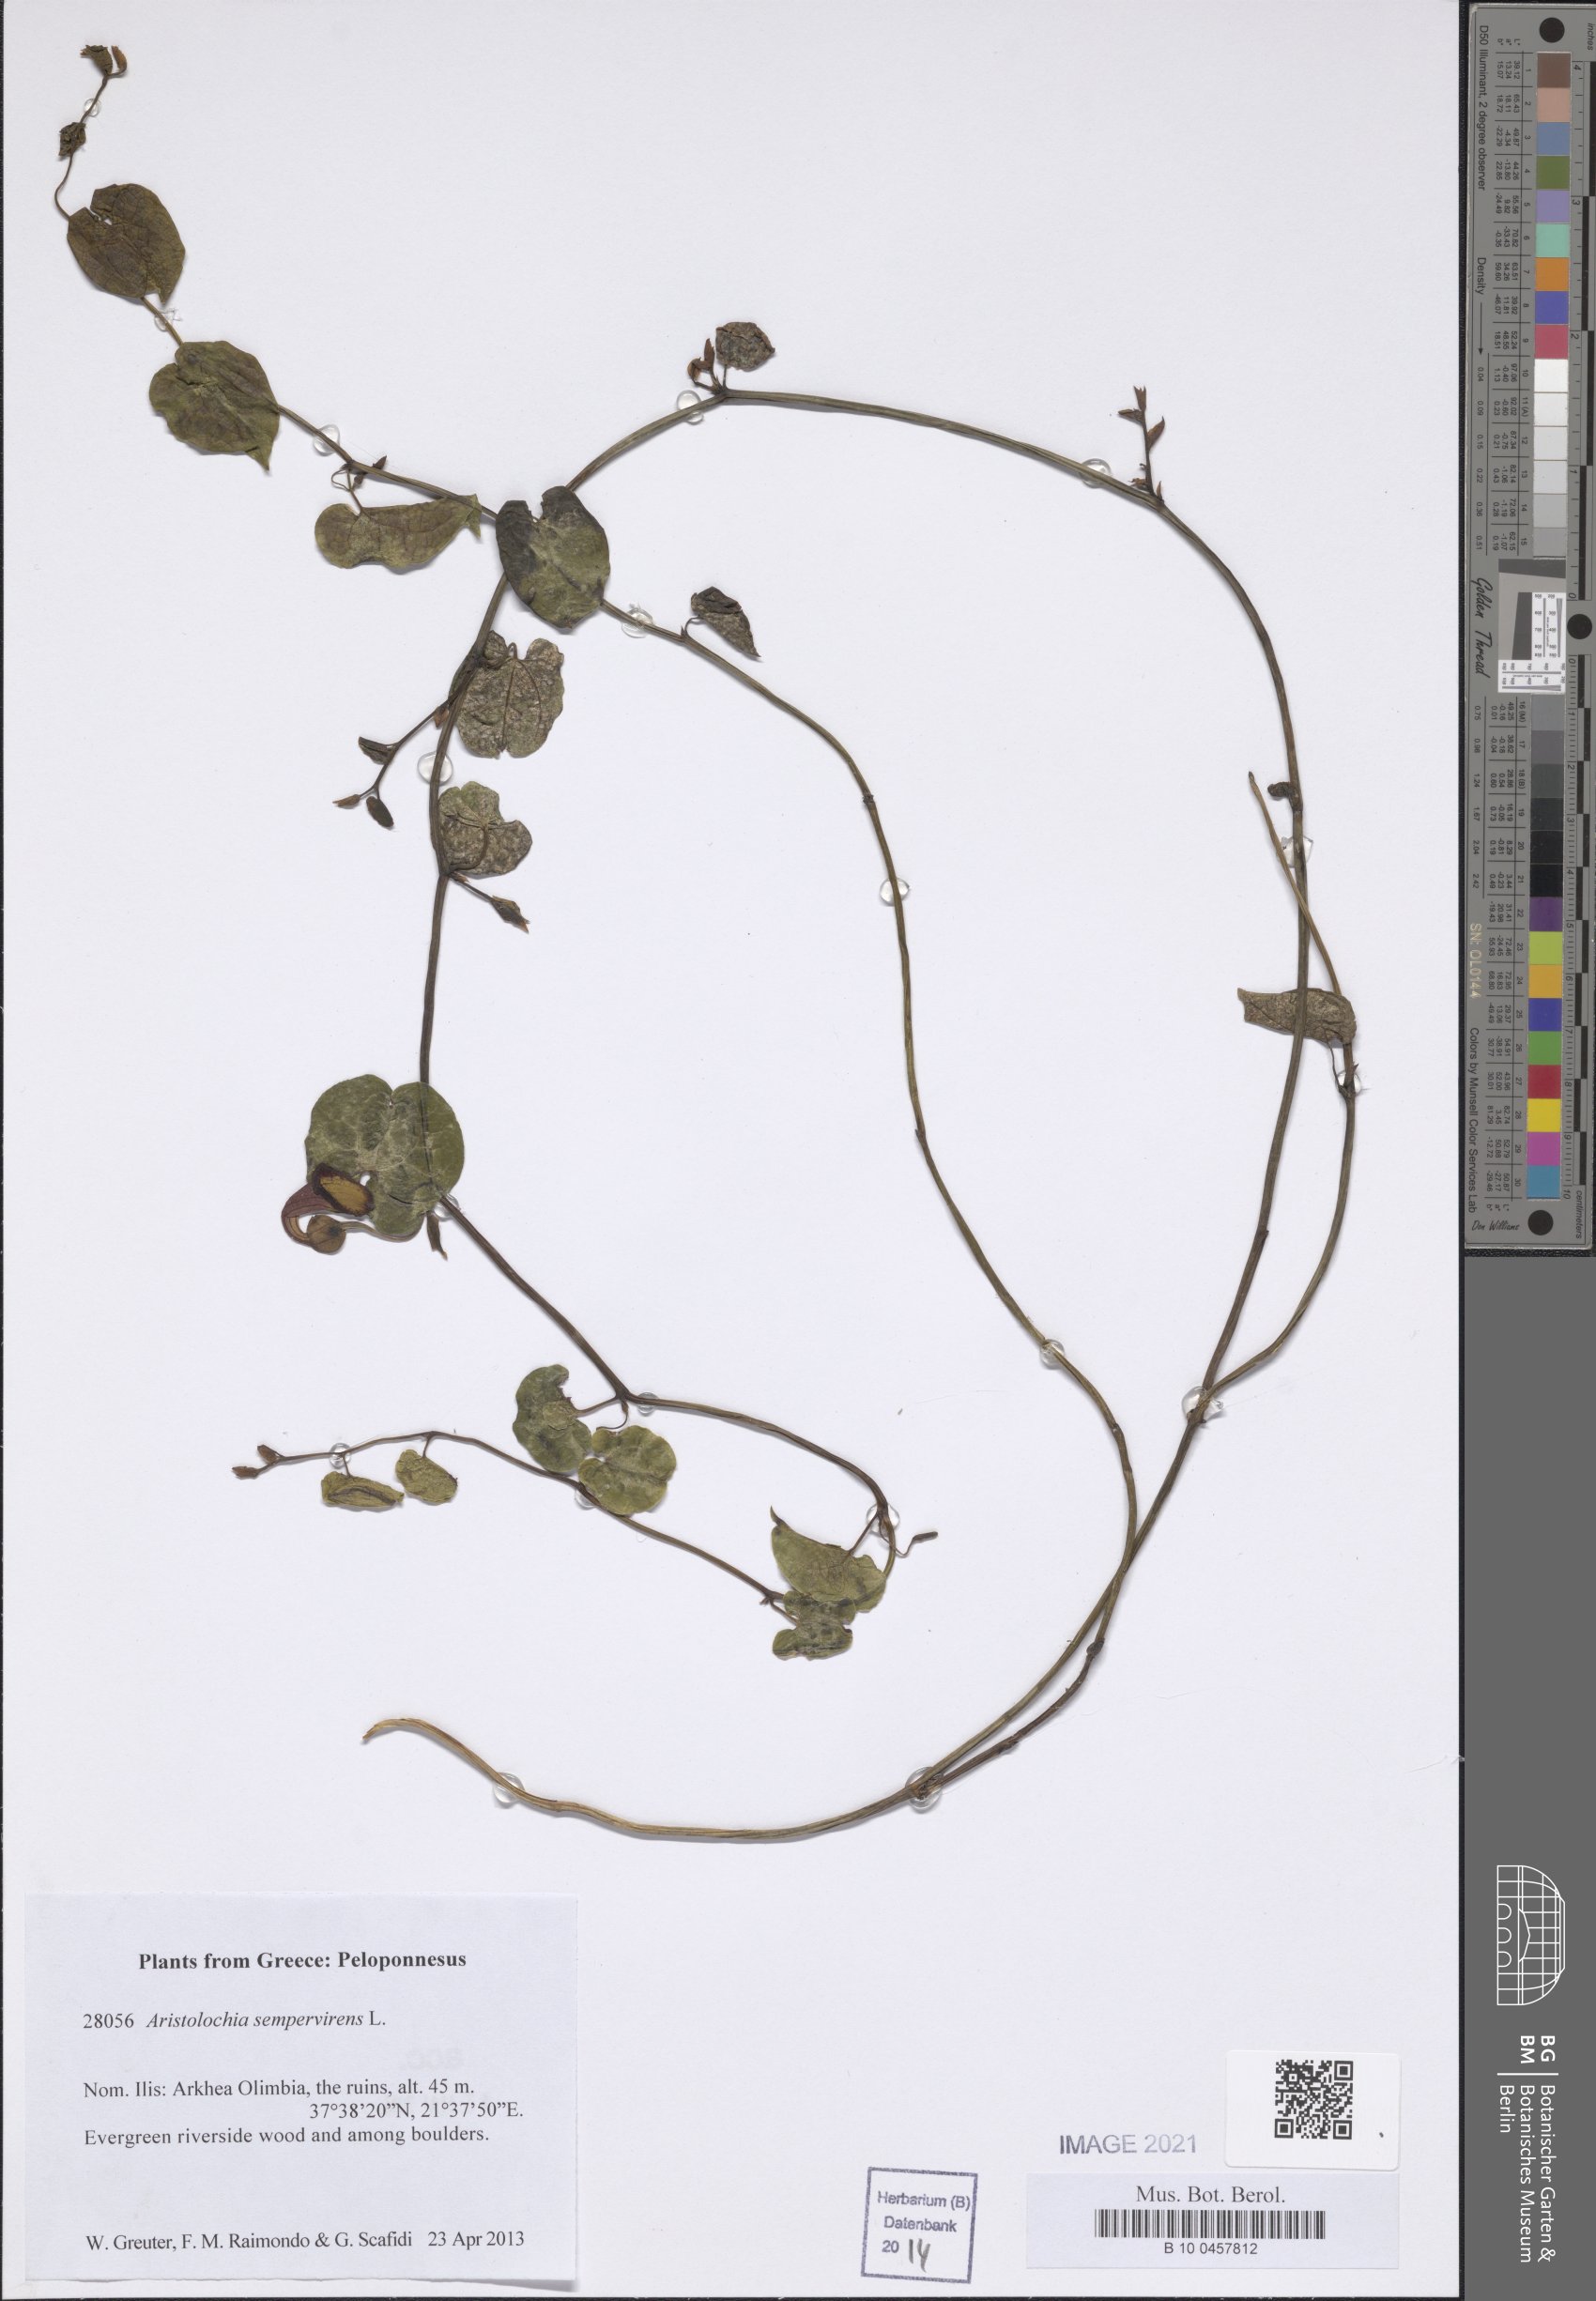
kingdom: Plantae
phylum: Tracheophyta
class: Magnoliopsida
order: Piperales
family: Aristolochiaceae
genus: Aristolochia
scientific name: Aristolochia sempervirens
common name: Long birthwort
